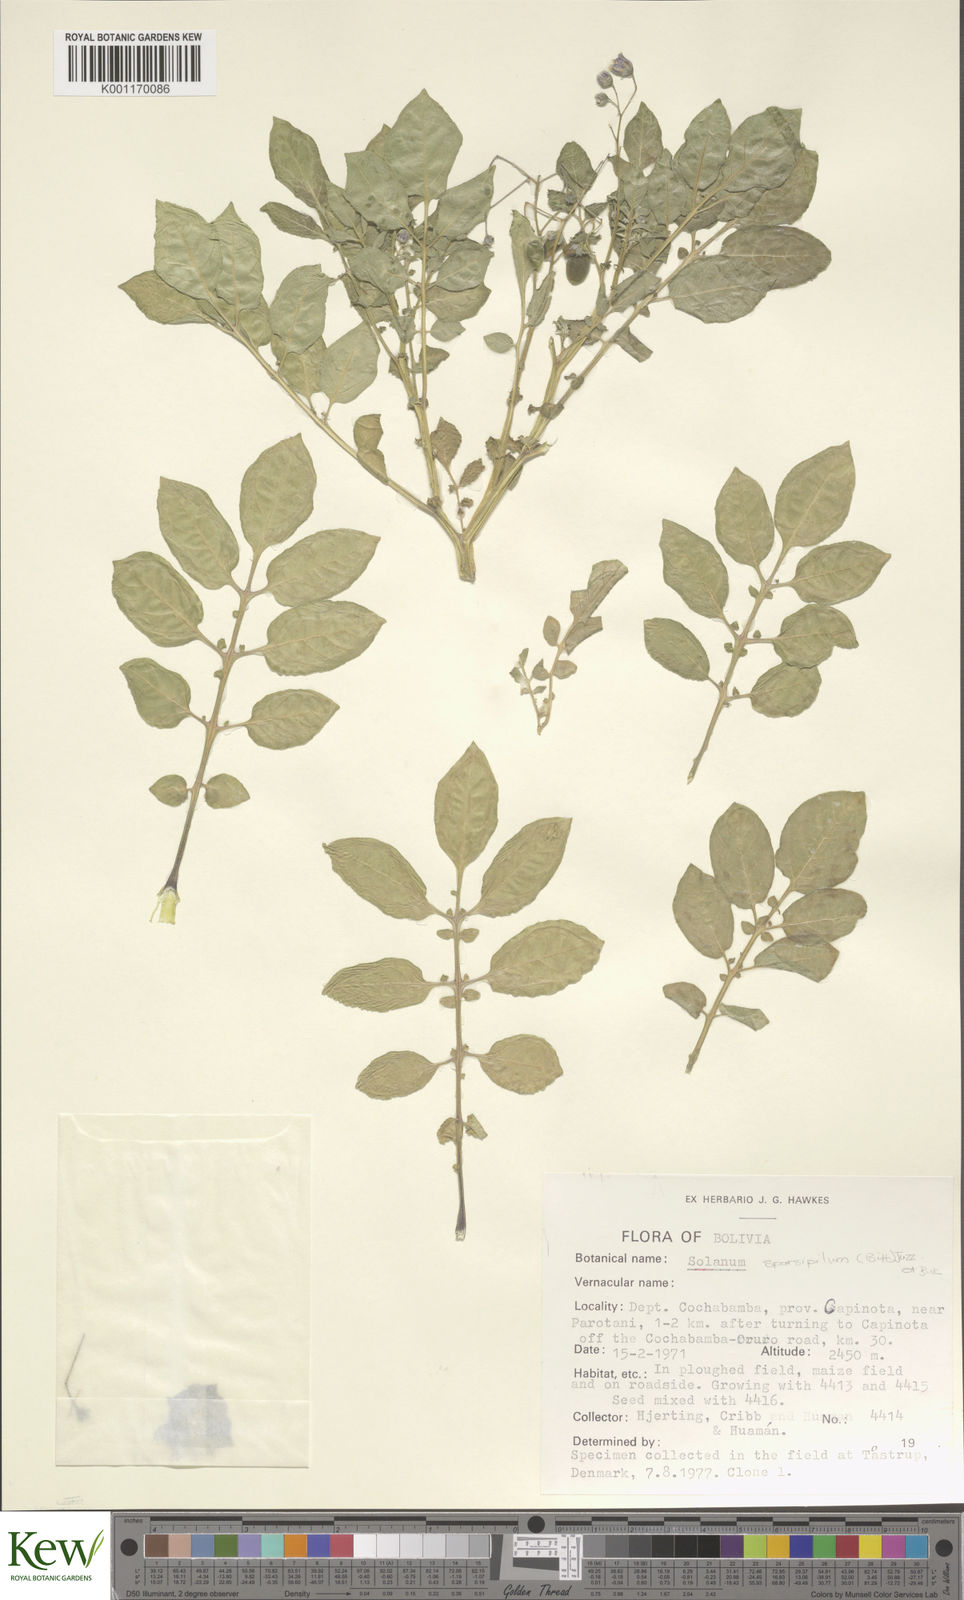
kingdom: Plantae
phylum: Tracheophyta
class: Magnoliopsida
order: Solanales
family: Solanaceae
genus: Solanum
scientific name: Solanum brevicaule
